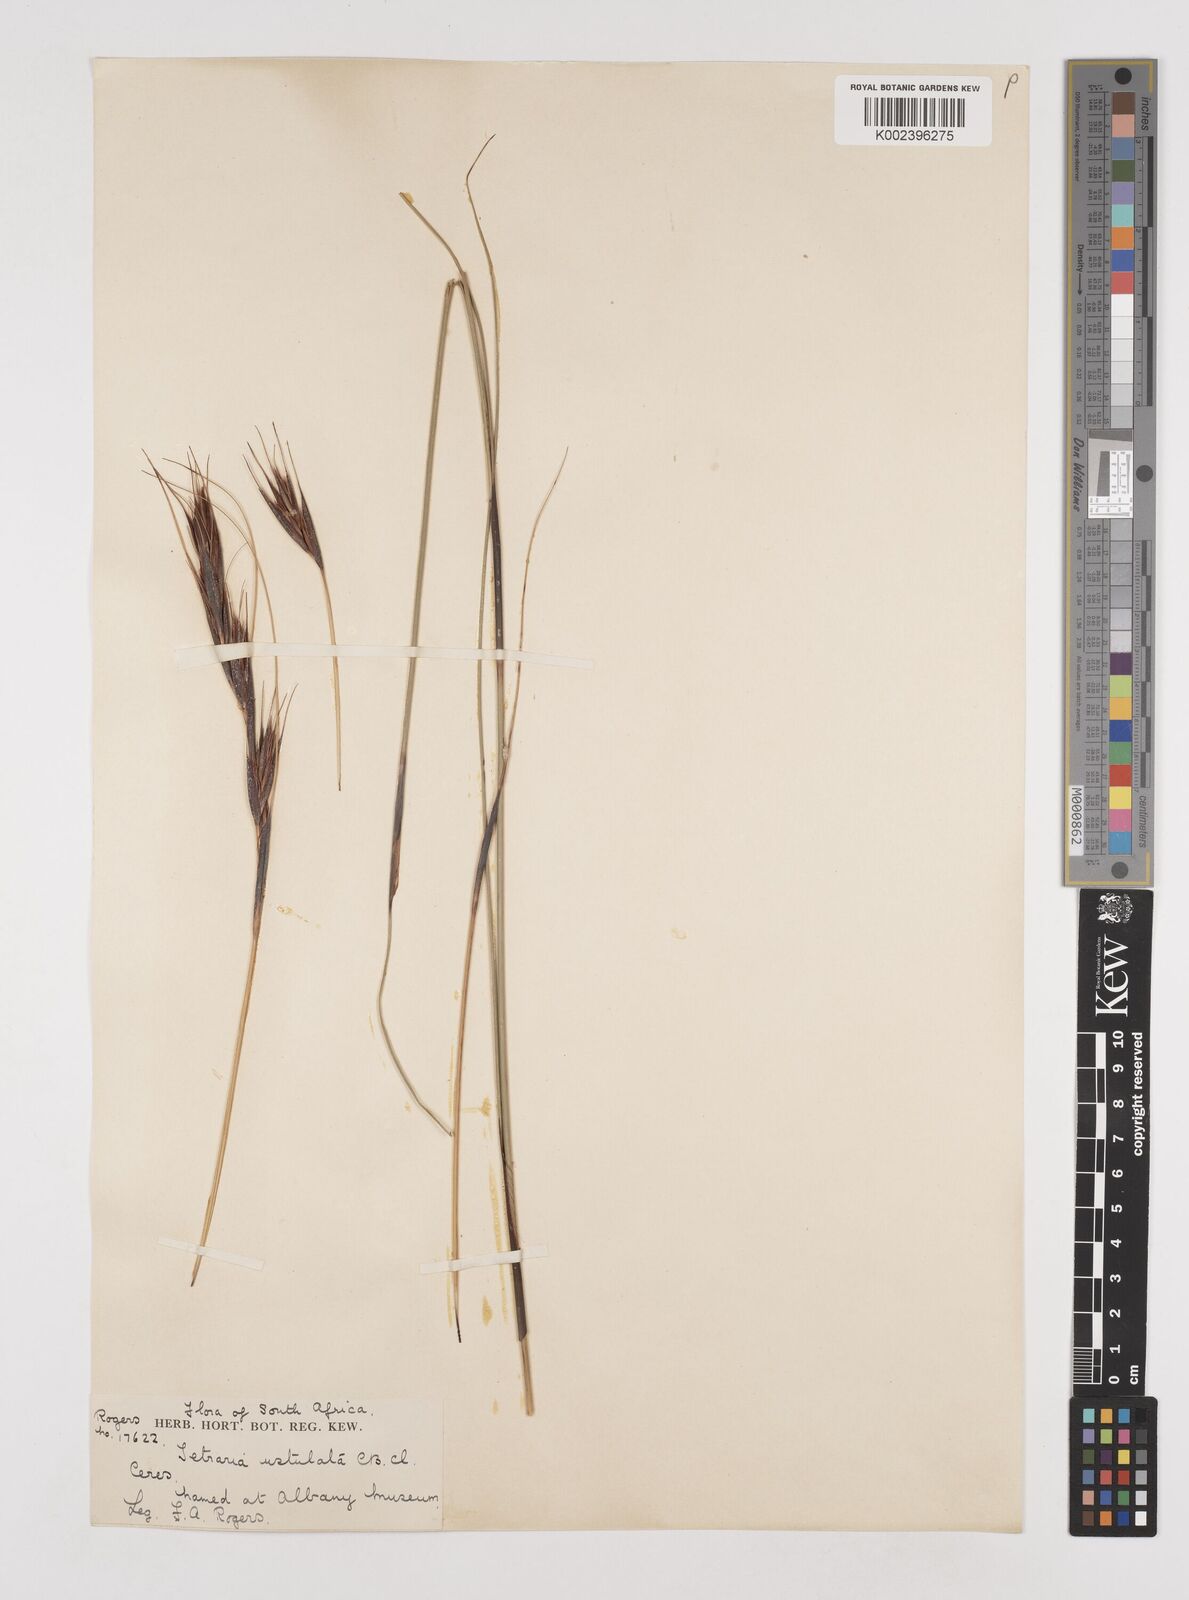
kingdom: Plantae
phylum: Tracheophyta
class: Liliopsida
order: Poales
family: Cyperaceae
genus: Tetraria
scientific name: Tetraria ustulata
